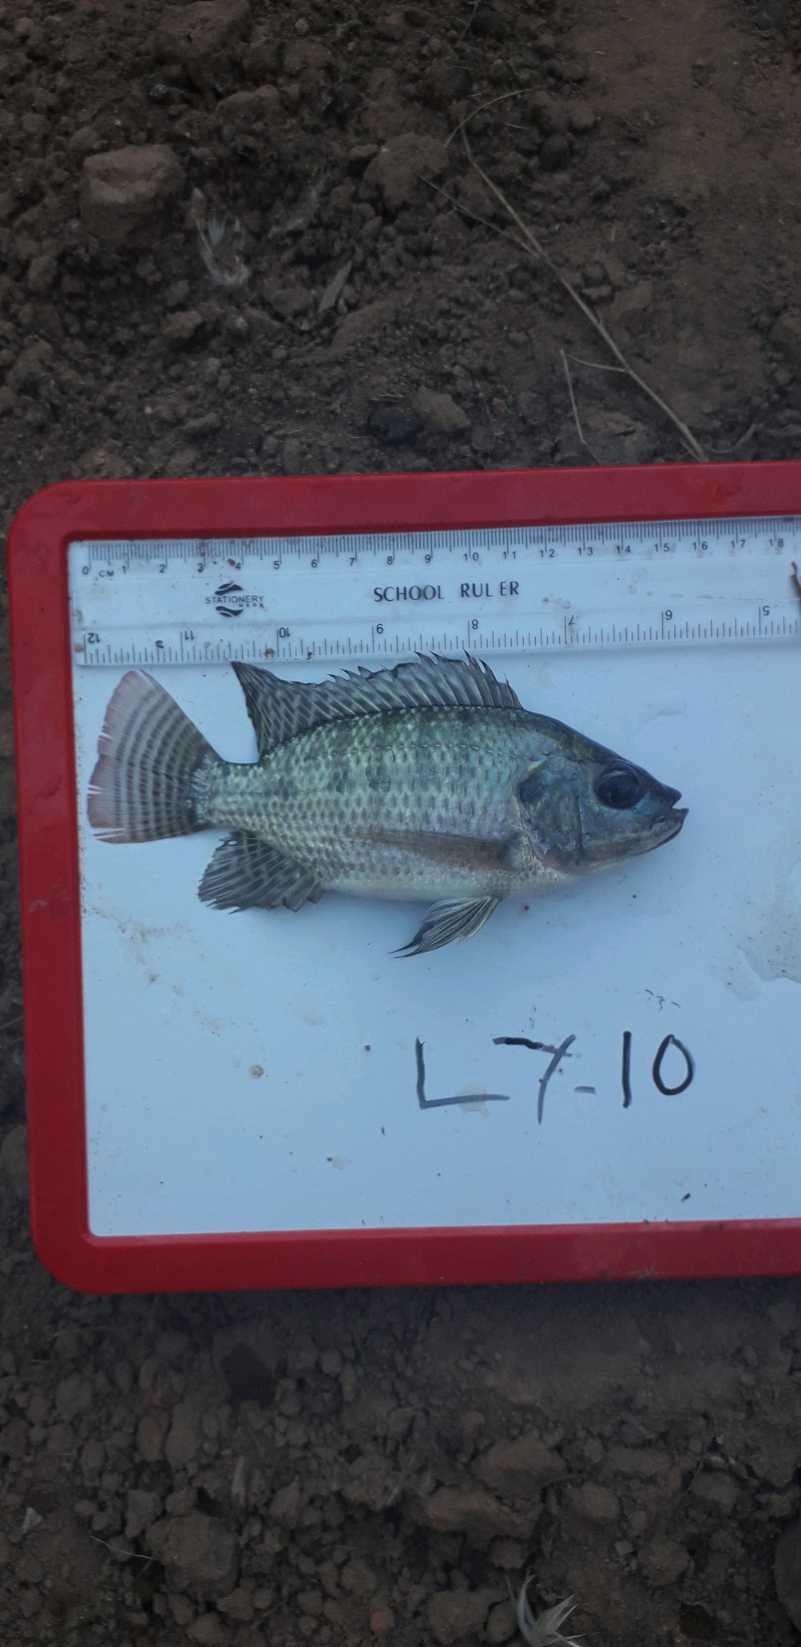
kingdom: Animalia
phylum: Chordata
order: Perciformes
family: Cichlidae
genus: Oreochromis
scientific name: Oreochromis niloticus
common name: Nile tilapia
